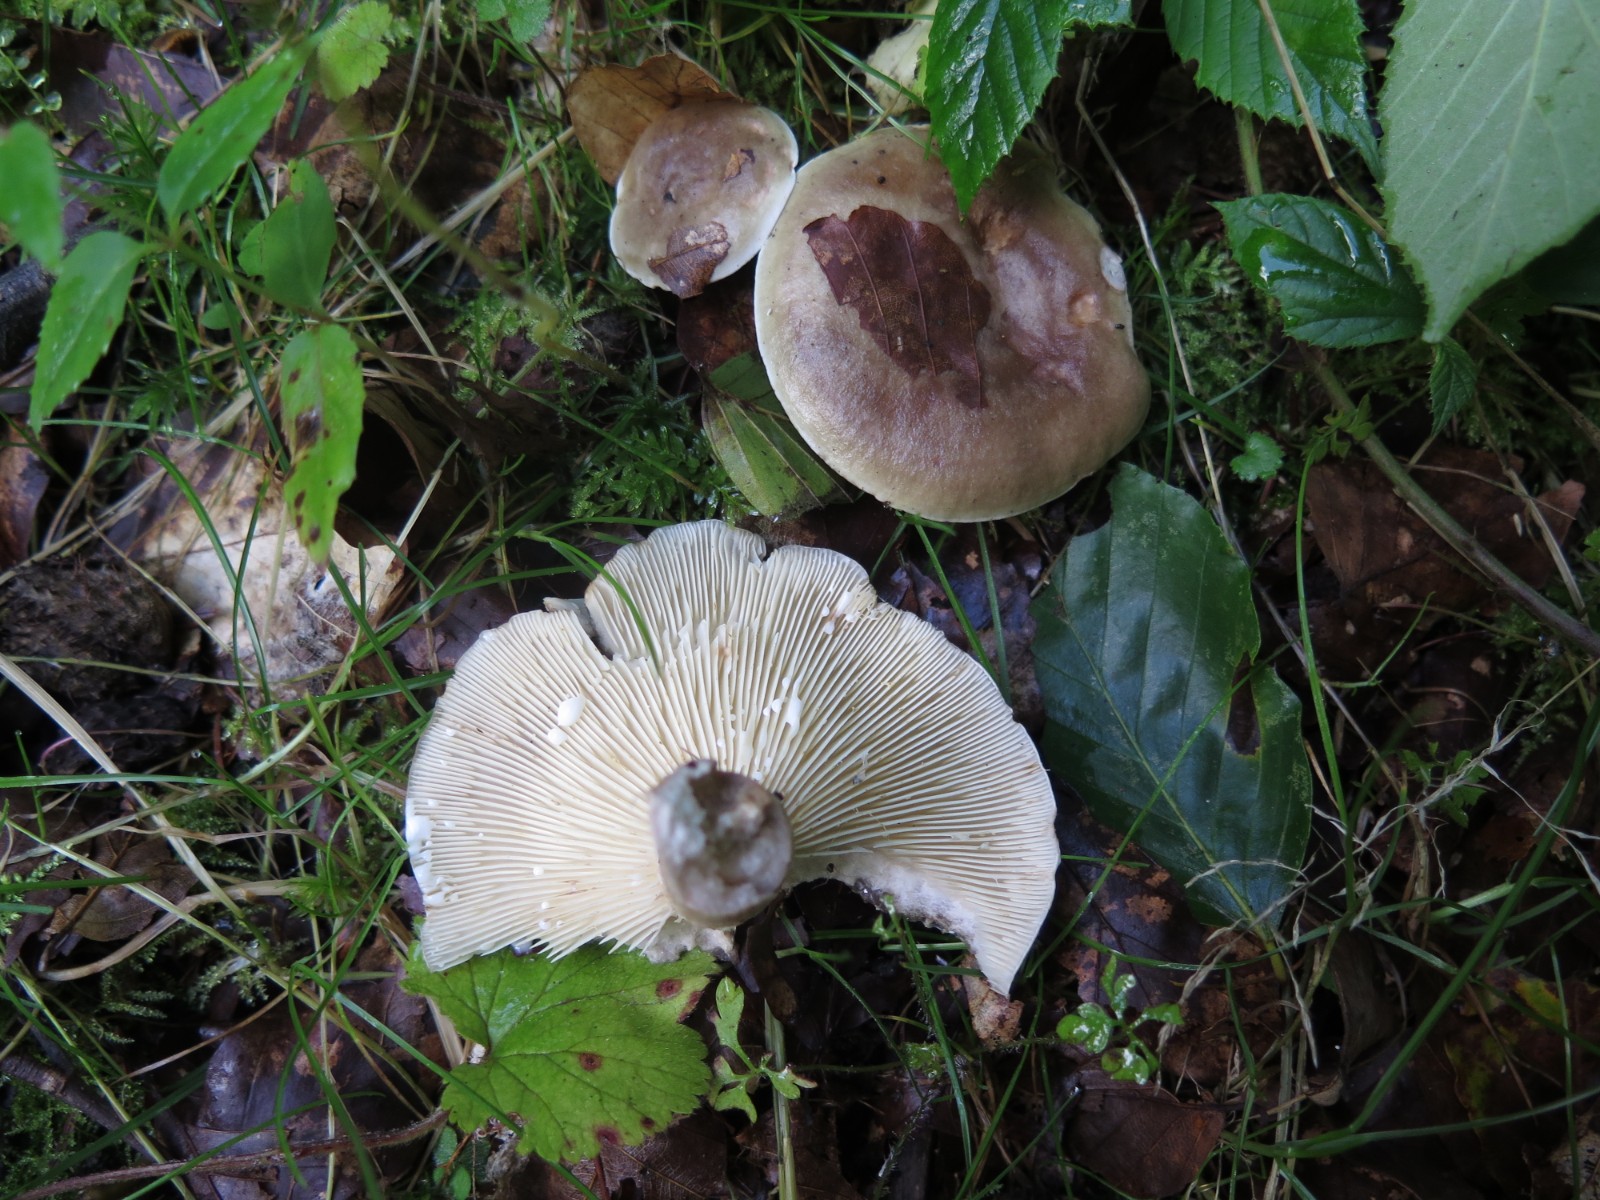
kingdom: Fungi
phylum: Basidiomycota
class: Agaricomycetes
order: Russulales
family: Russulaceae
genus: Lactarius
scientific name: Lactarius fluens
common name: lysrandet mælkehat
